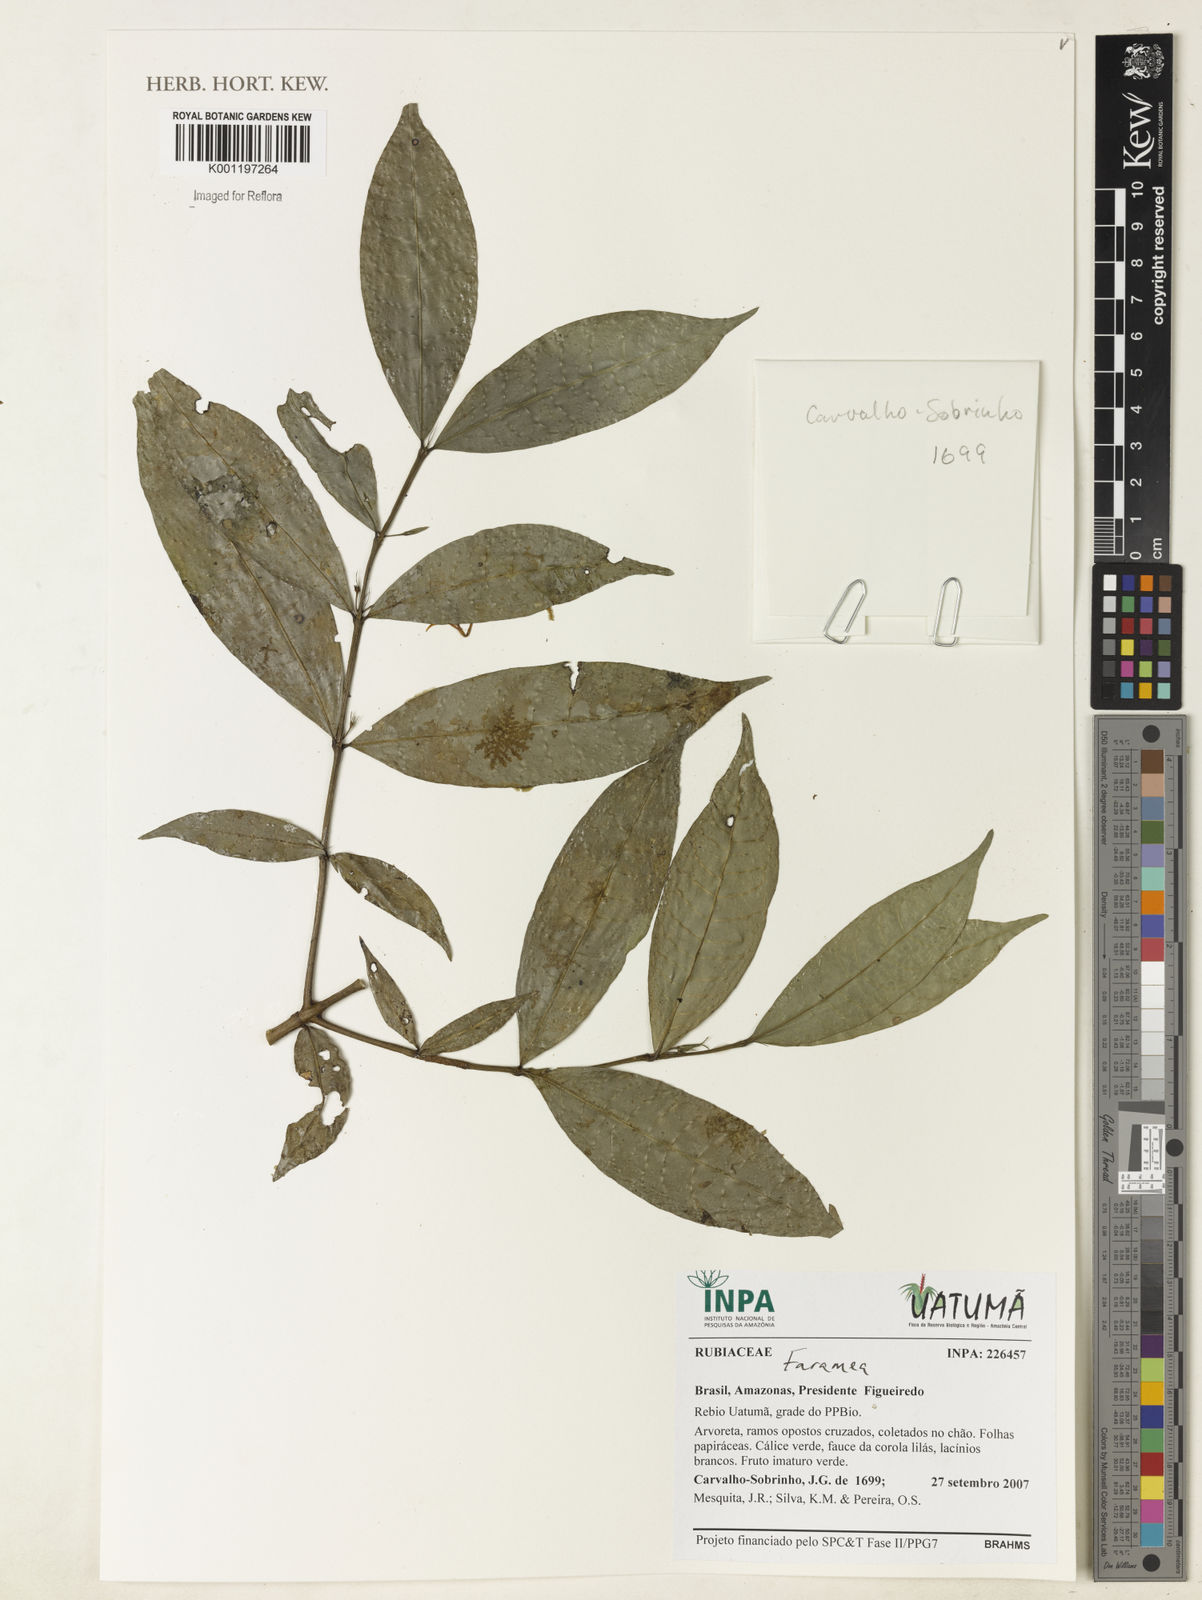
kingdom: Plantae
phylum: Tracheophyta
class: Magnoliopsida
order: Gentianales
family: Rubiaceae
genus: Faramea
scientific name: Faramea
